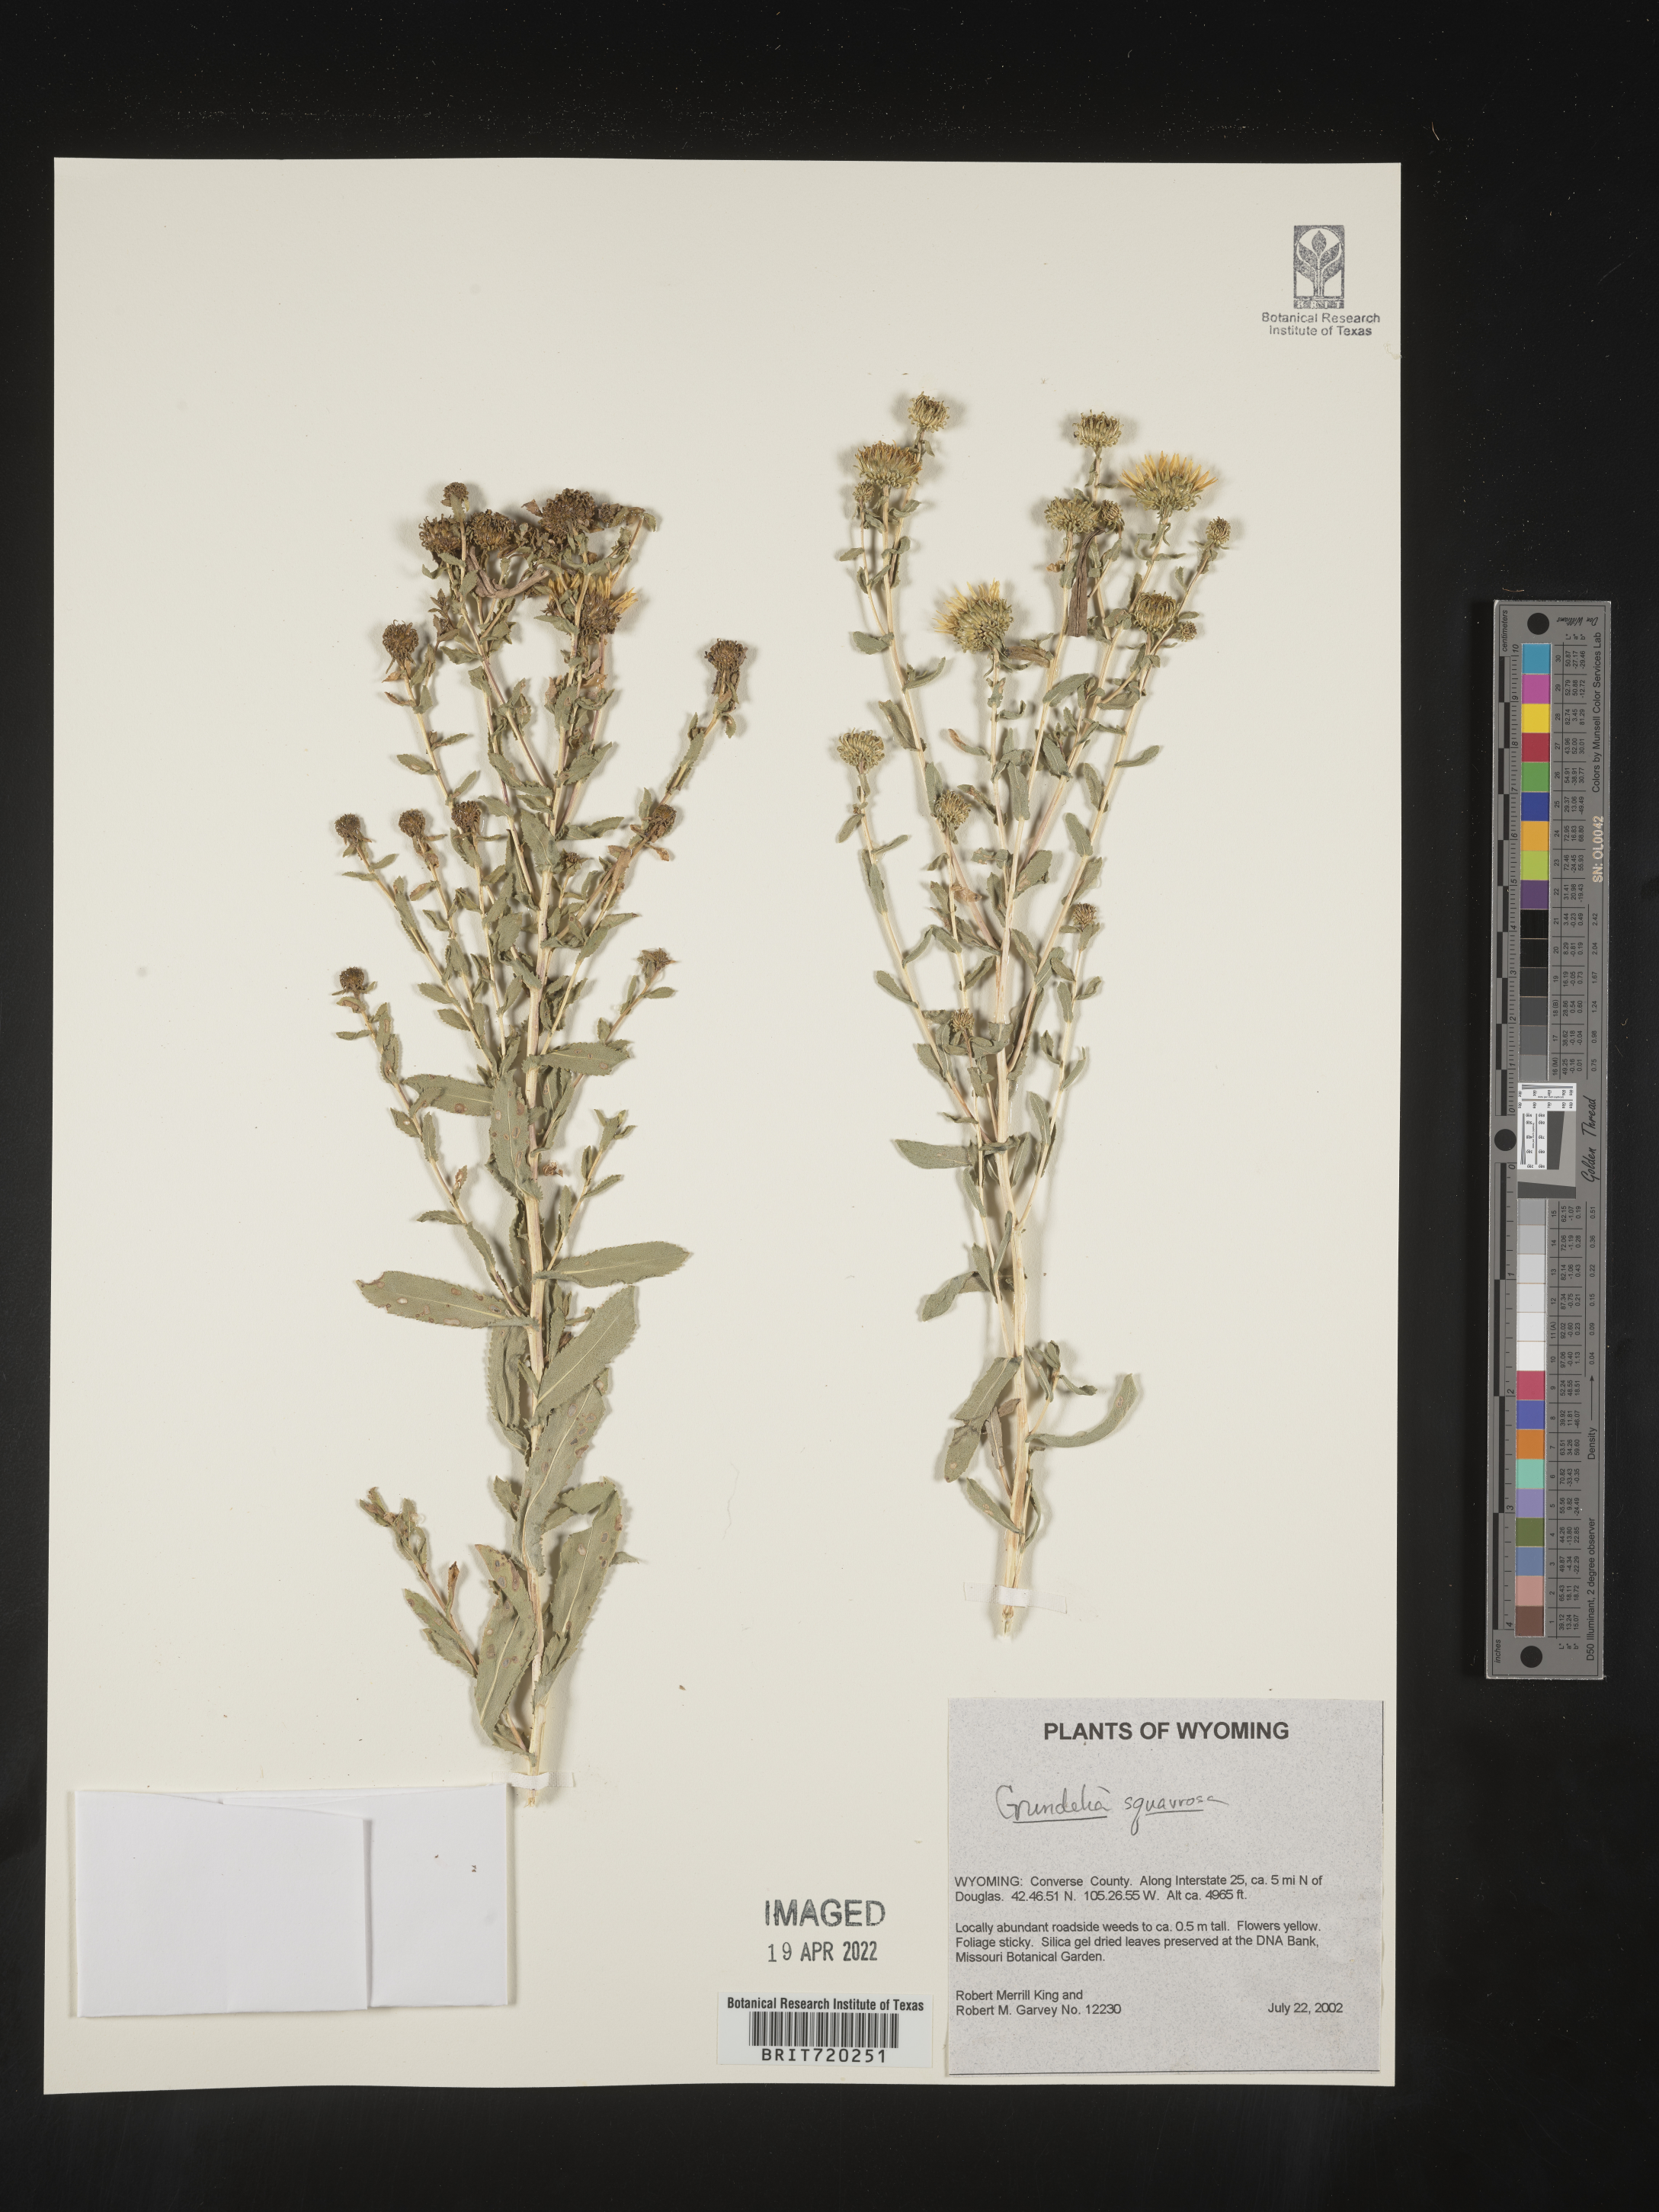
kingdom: Plantae
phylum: Tracheophyta
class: Magnoliopsida
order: Asterales
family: Asteraceae
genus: Grindelia
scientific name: Grindelia squarrosa
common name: Curly-cup gumweed
